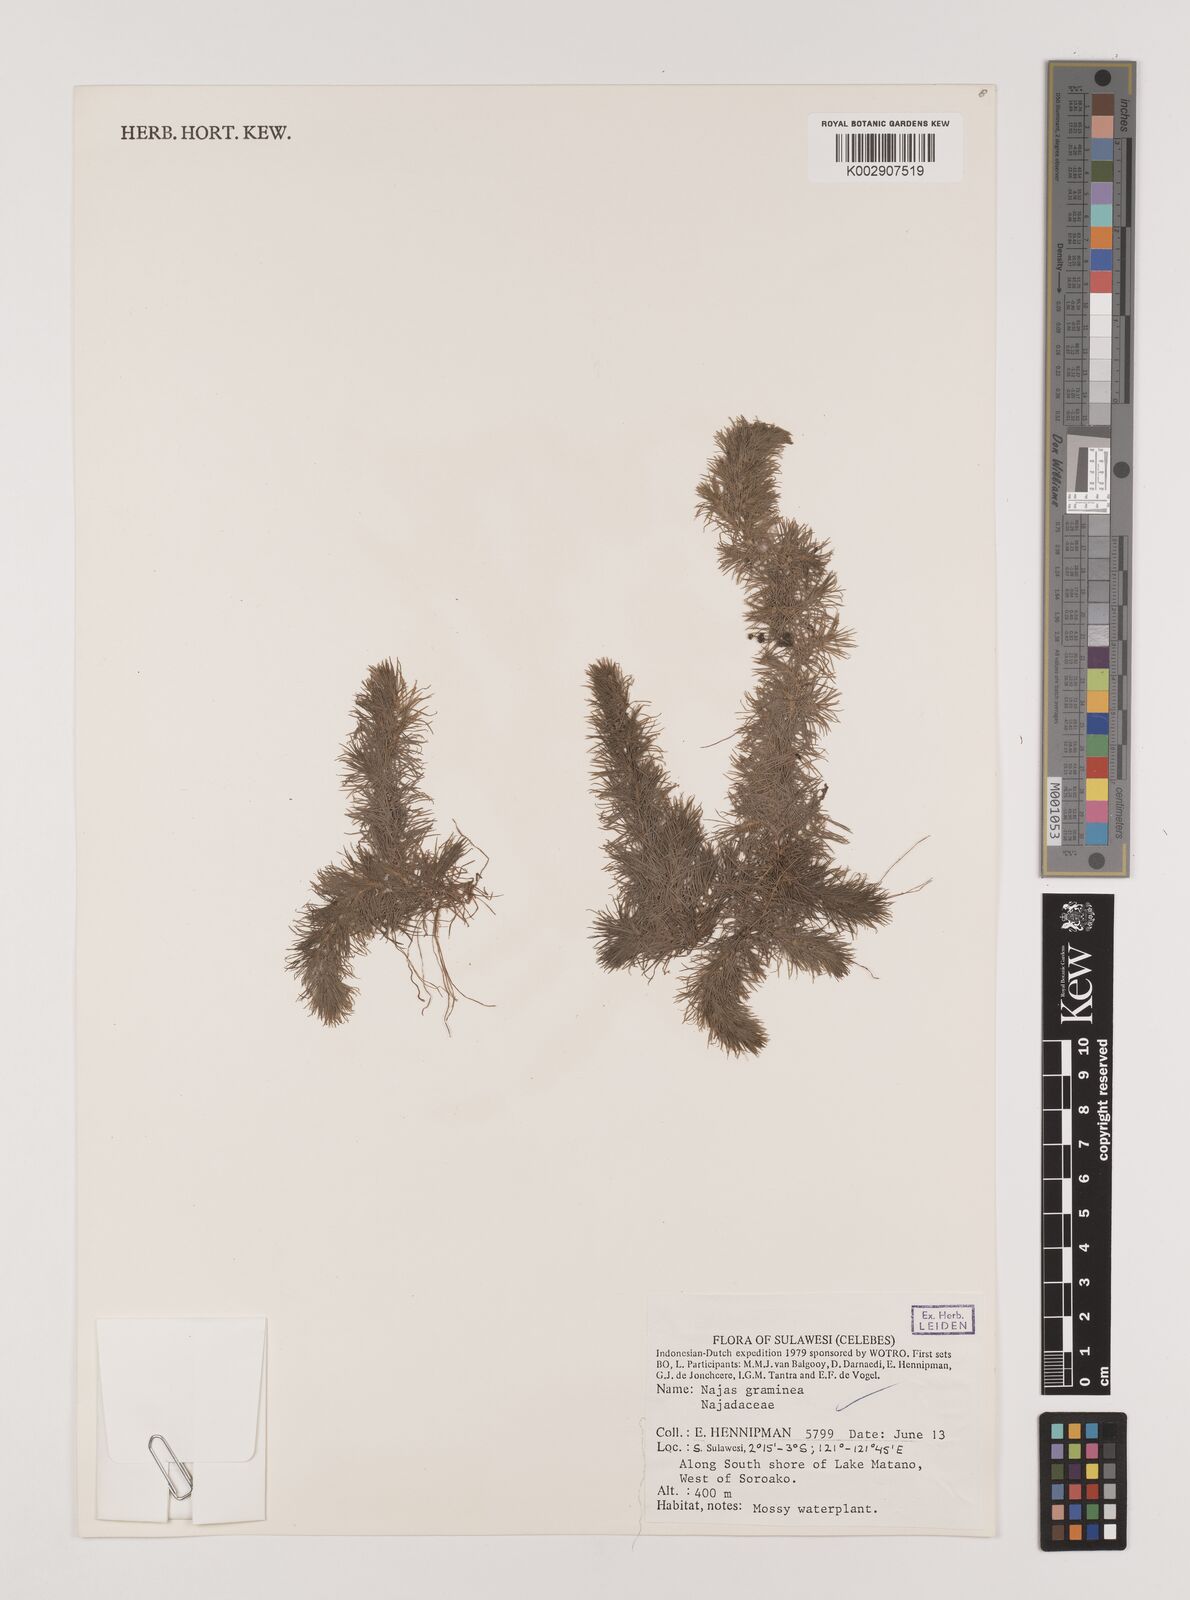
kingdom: Plantae
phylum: Tracheophyta
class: Liliopsida
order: Alismatales
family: Hydrocharitaceae
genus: Najas
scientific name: Najas graminea
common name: Ricefield waternymph
